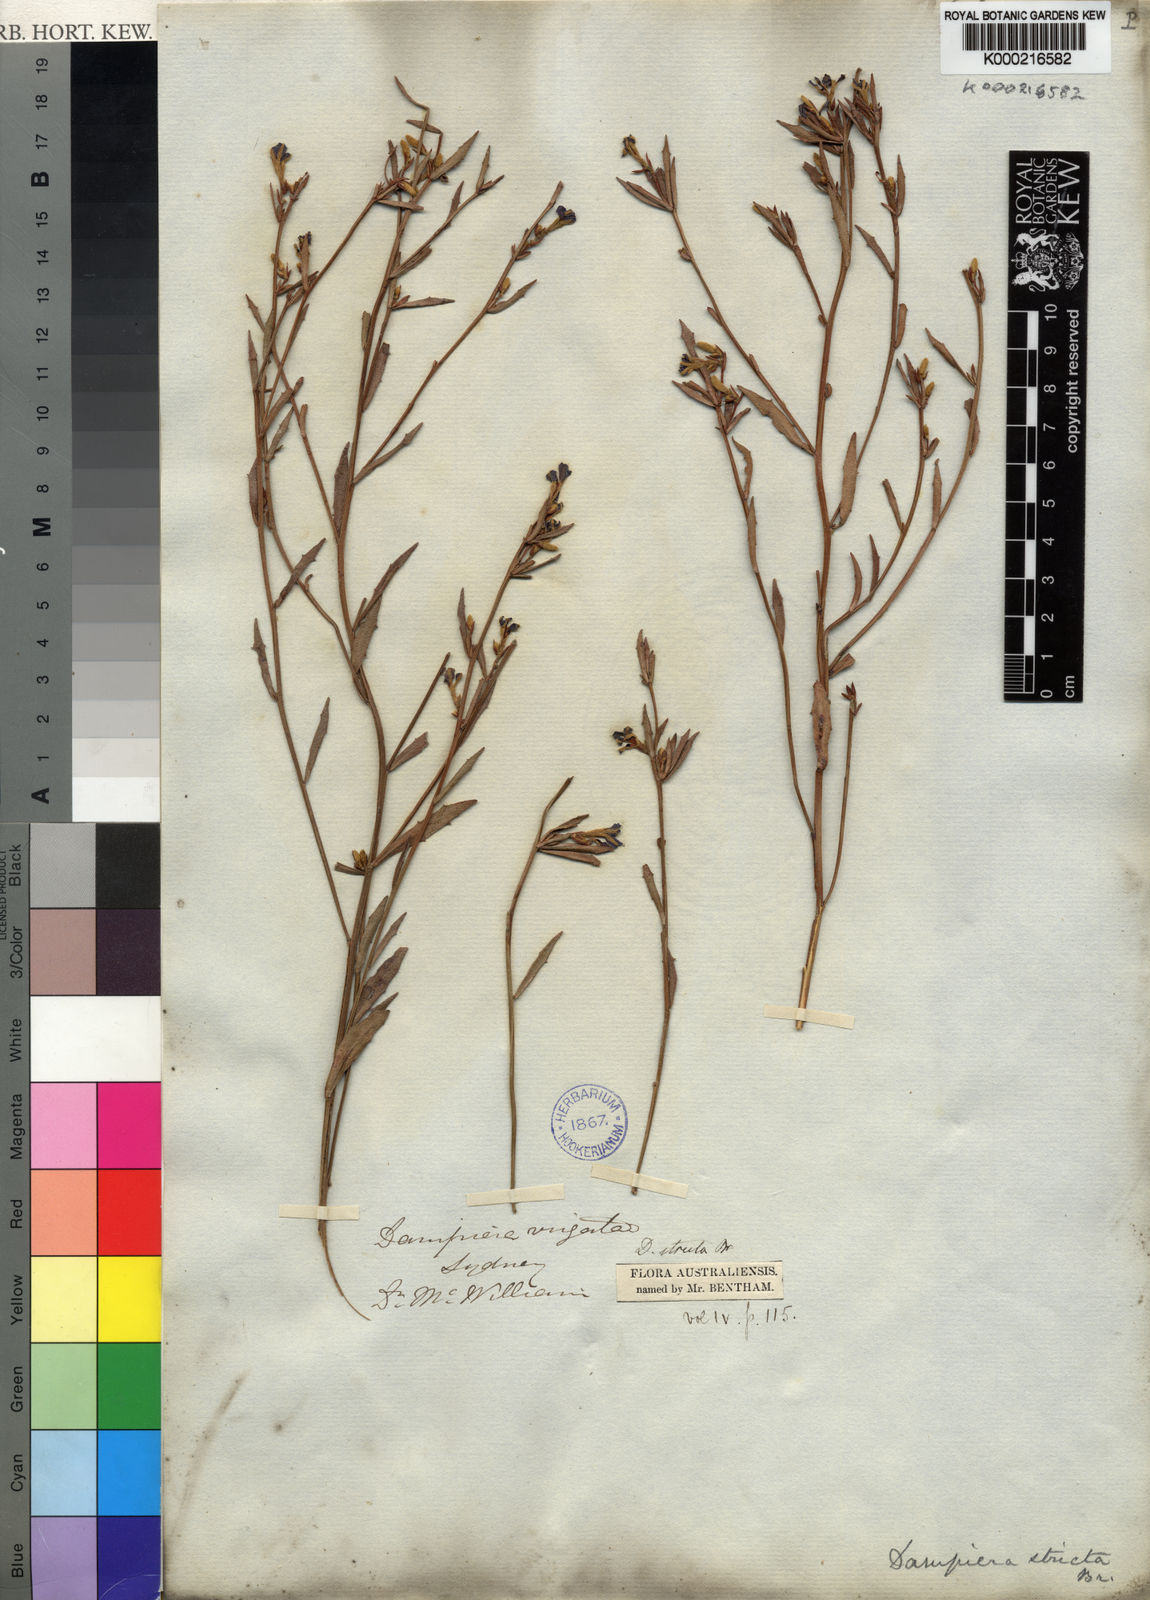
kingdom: Plantae
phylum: Tracheophyta
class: Magnoliopsida
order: Asterales
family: Goodeniaceae
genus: Dampiera
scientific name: Dampiera stricta
